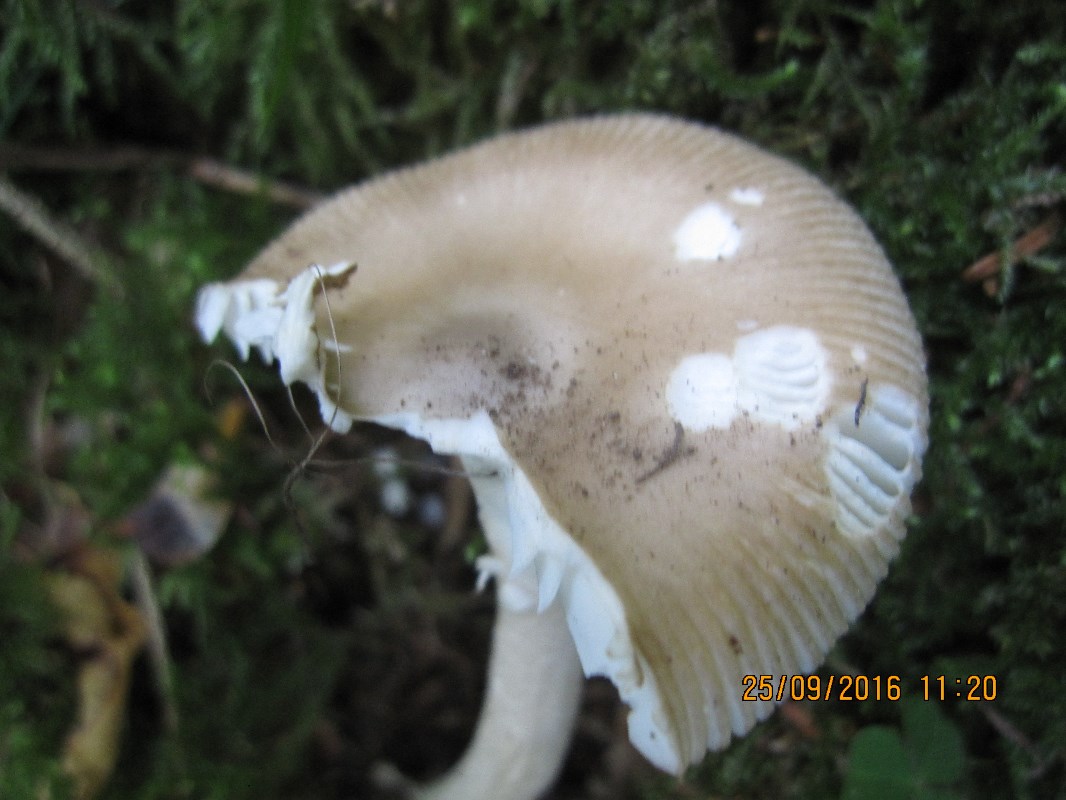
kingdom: Fungi
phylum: Basidiomycota
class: Agaricomycetes
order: Agaricales
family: Amanitaceae
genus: Amanita
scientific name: Amanita lividopallescens
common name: afblegende kam-fluesvamp
